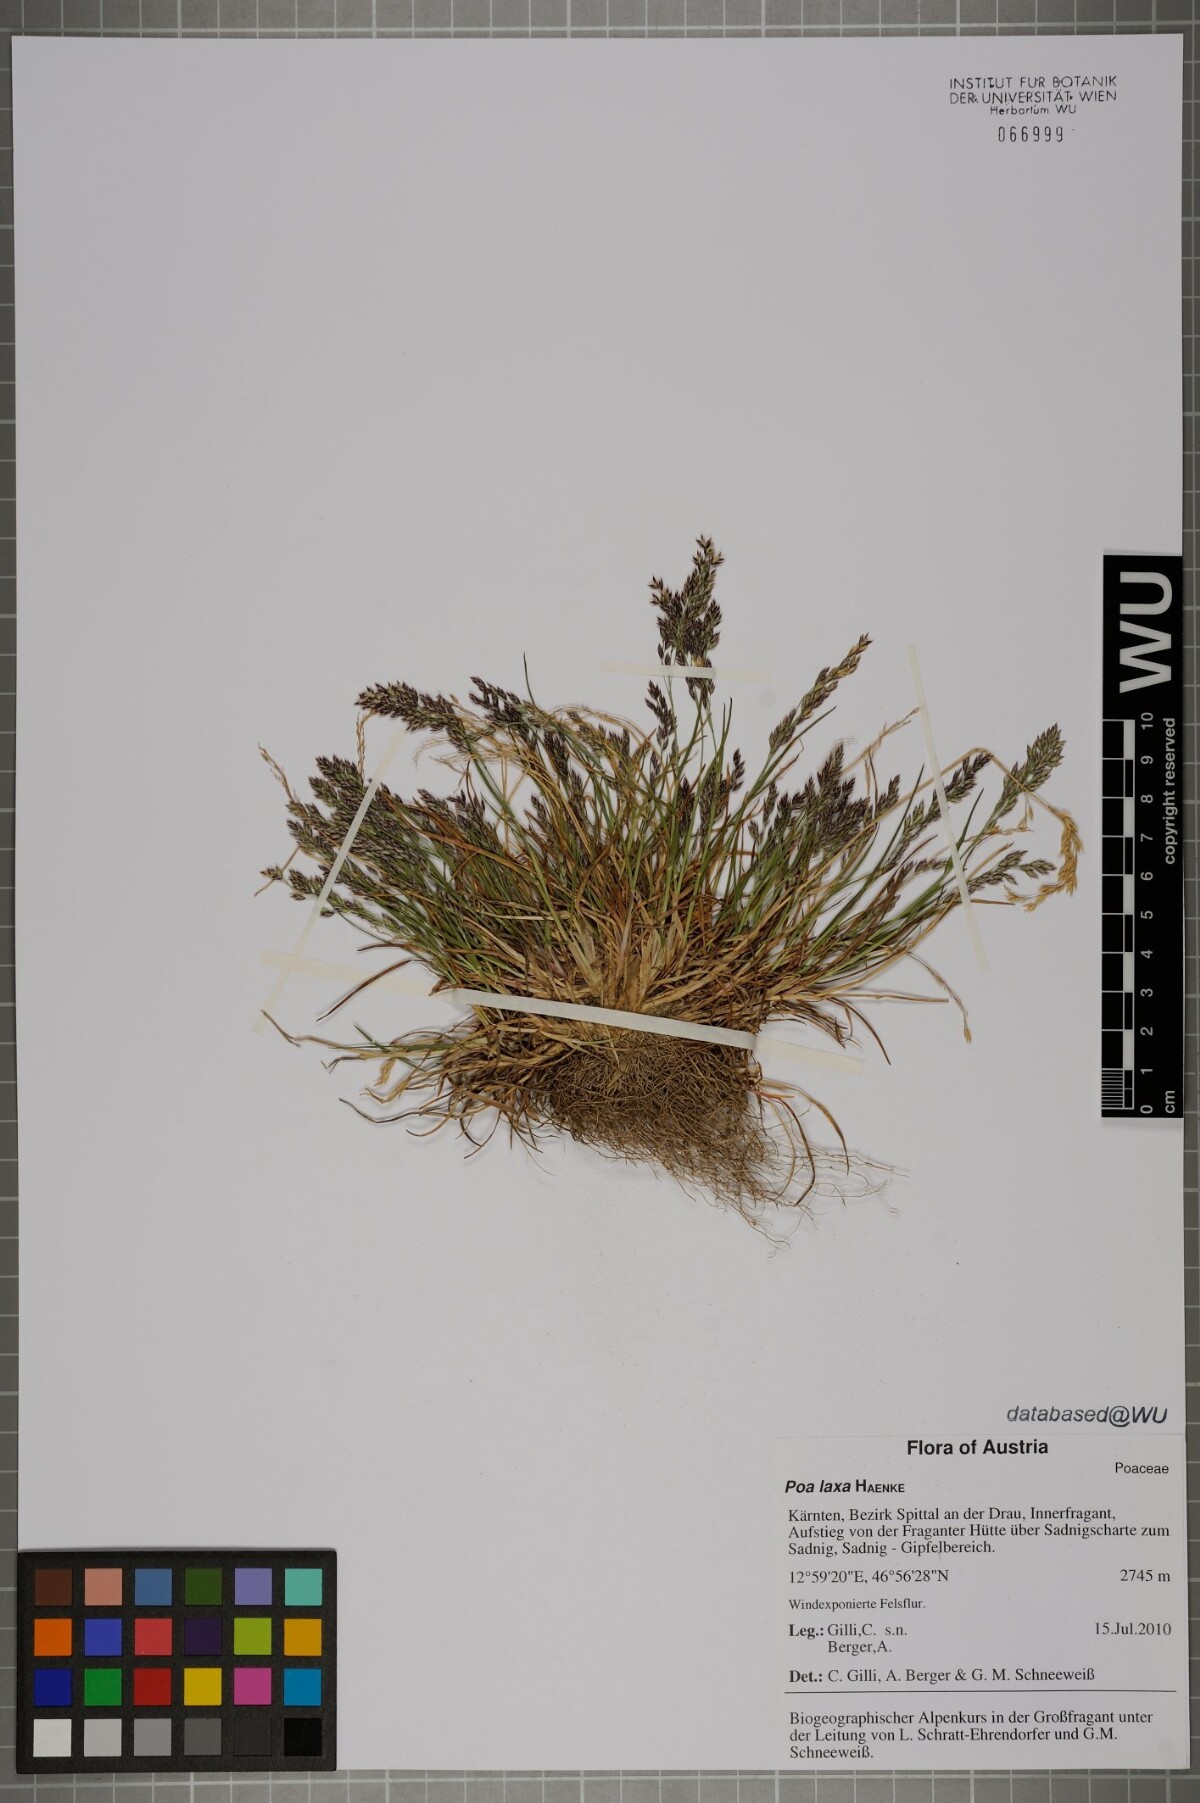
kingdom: Plantae
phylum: Tracheophyta
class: Liliopsida
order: Poales
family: Poaceae
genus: Poa
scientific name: Poa laxa
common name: Lax bluegrass
